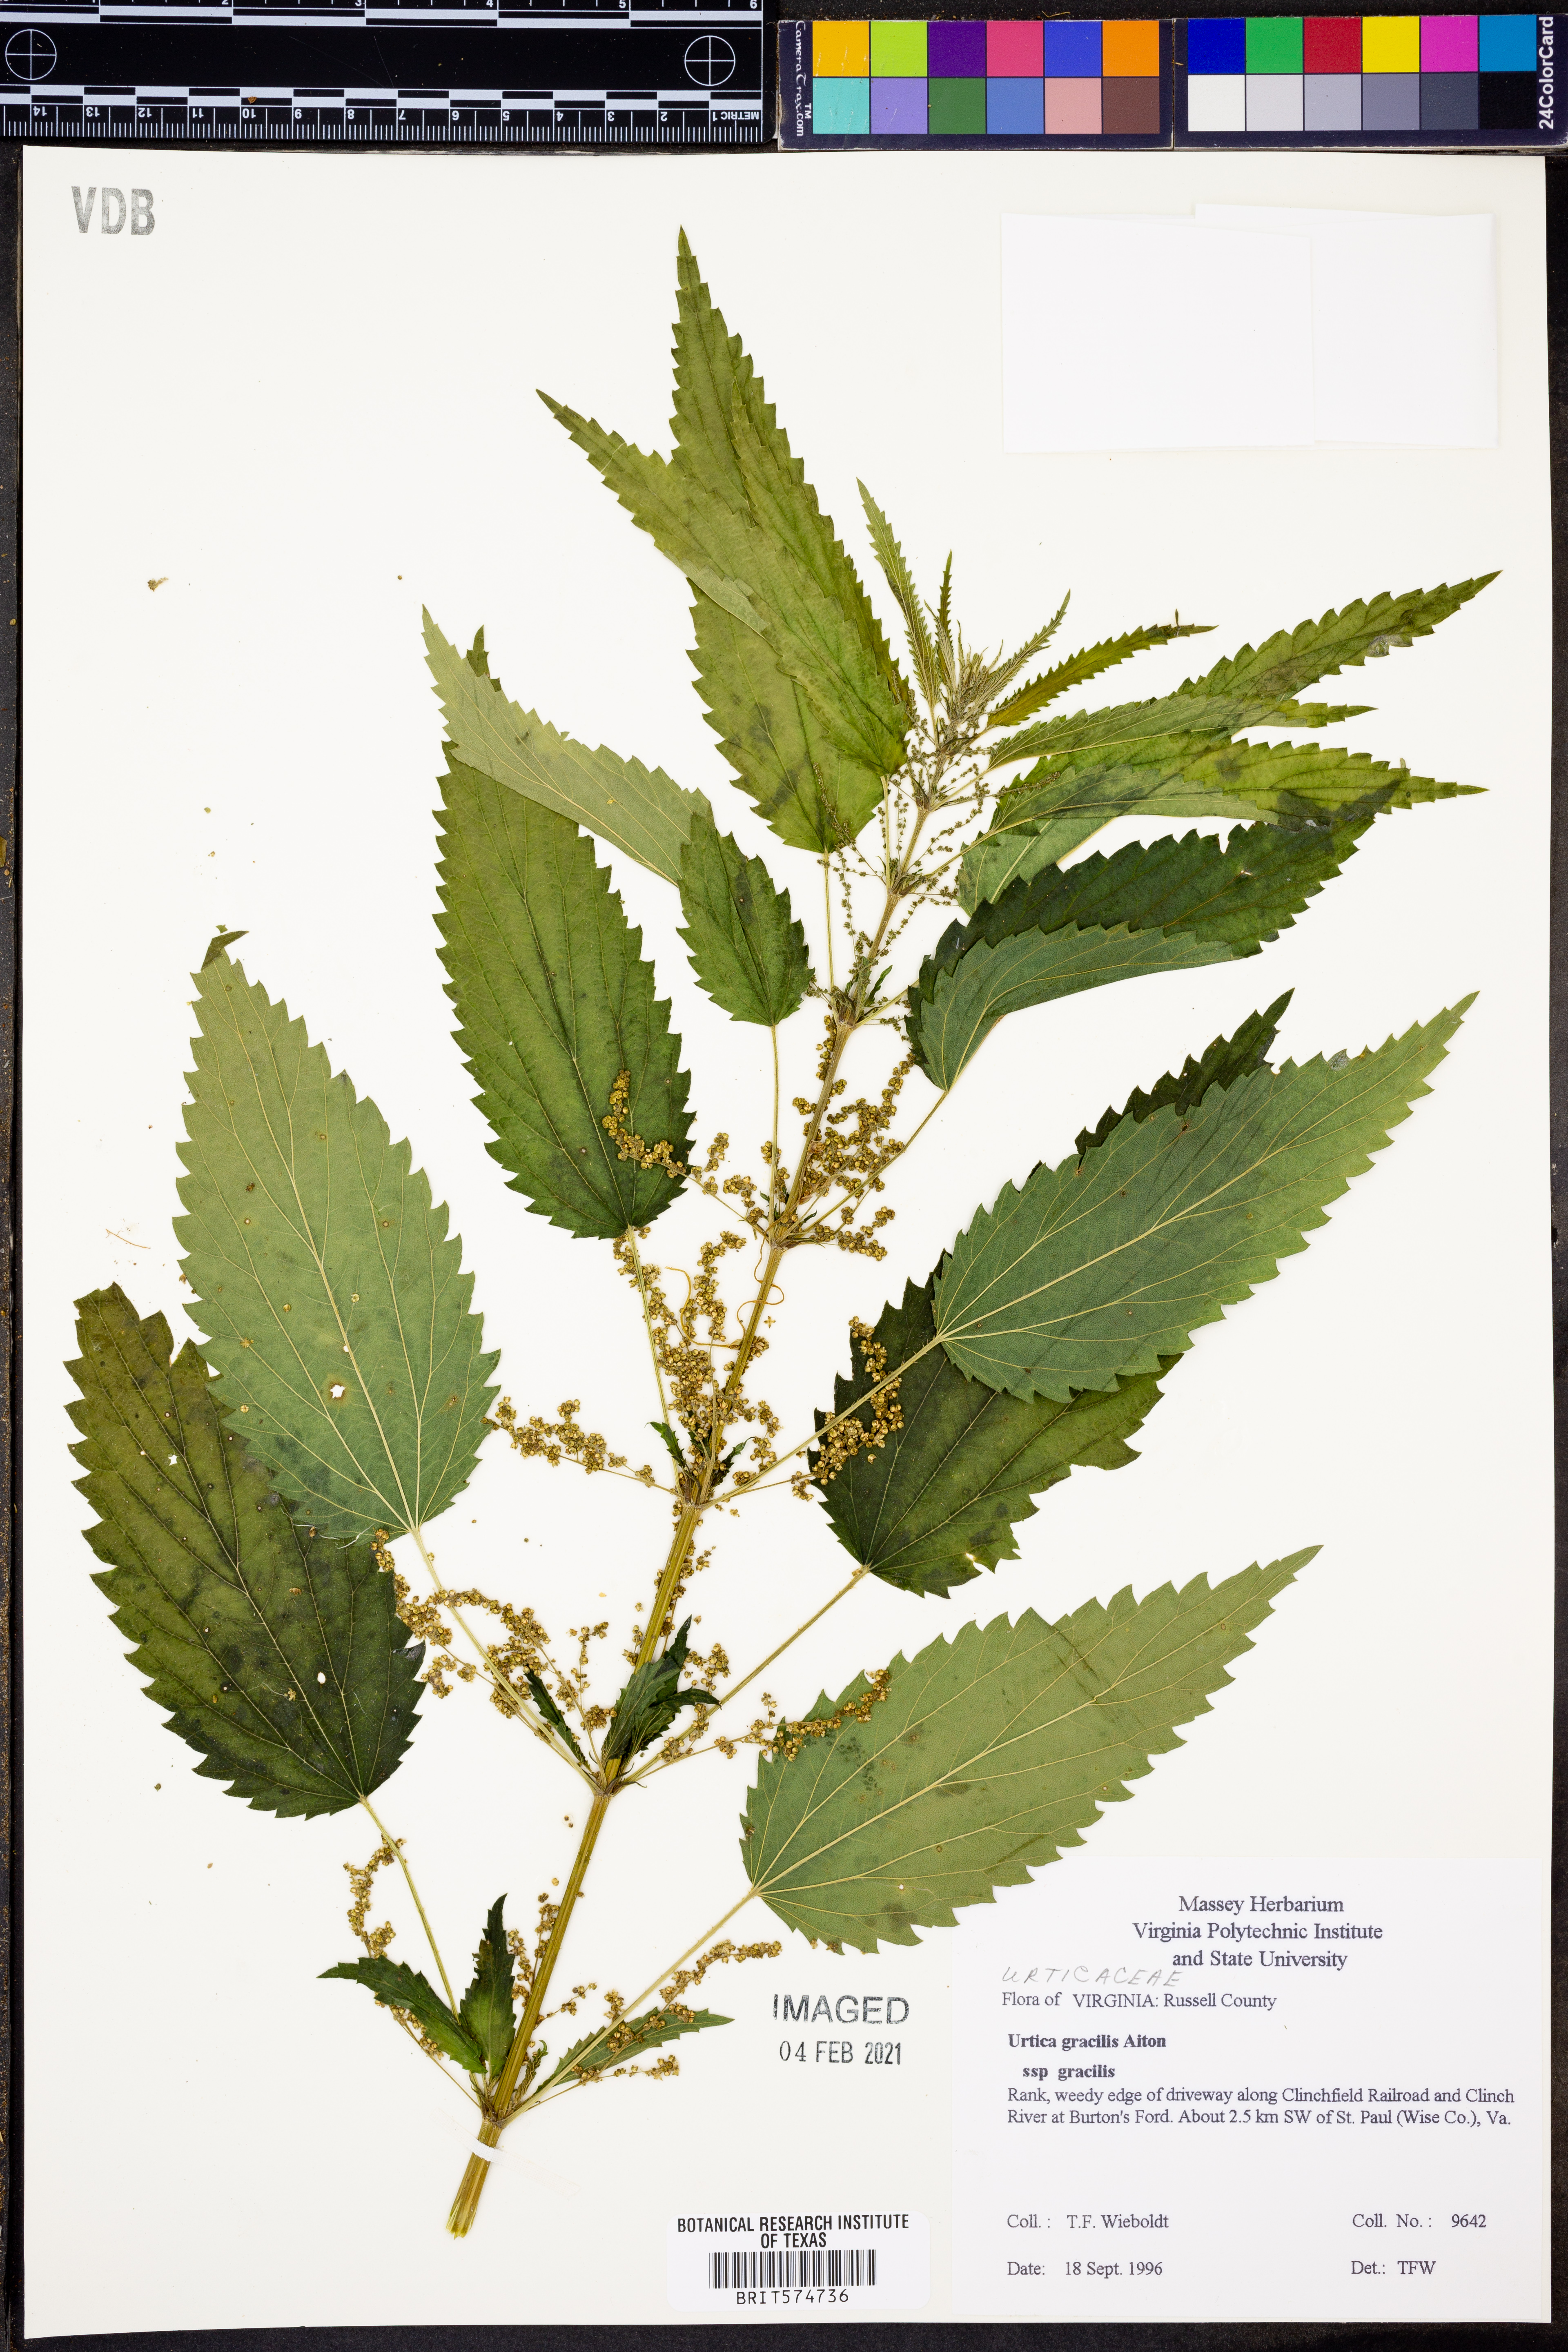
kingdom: Plantae
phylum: Tracheophyta
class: Magnoliopsida
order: Rosales
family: Urticaceae
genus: Urtica
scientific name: Urtica gracilis
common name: Slender stinging nettle
